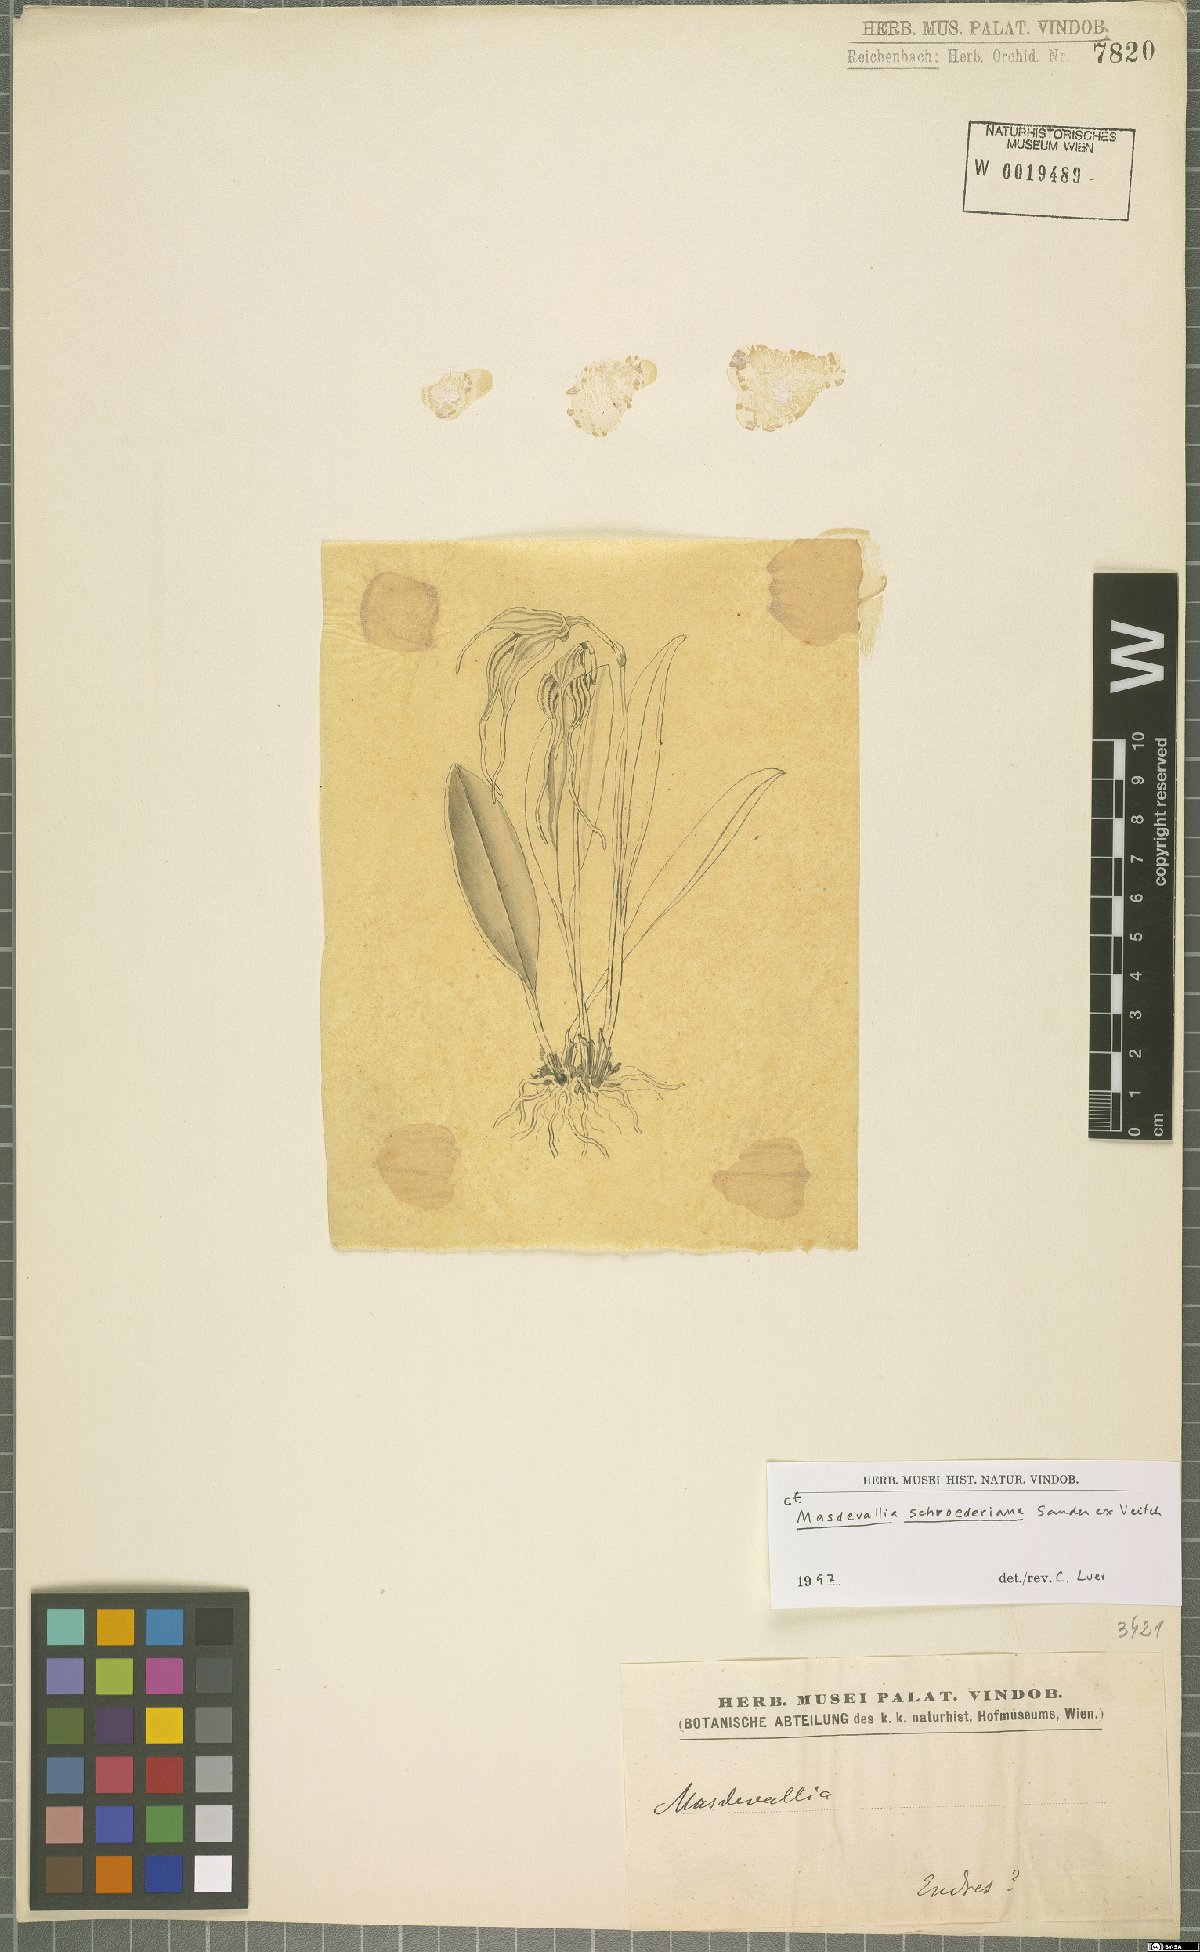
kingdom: Plantae
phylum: Tracheophyta
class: Liliopsida
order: Asparagales
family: Orchidaceae
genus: Masdevallia
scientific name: Masdevallia schroederiana
